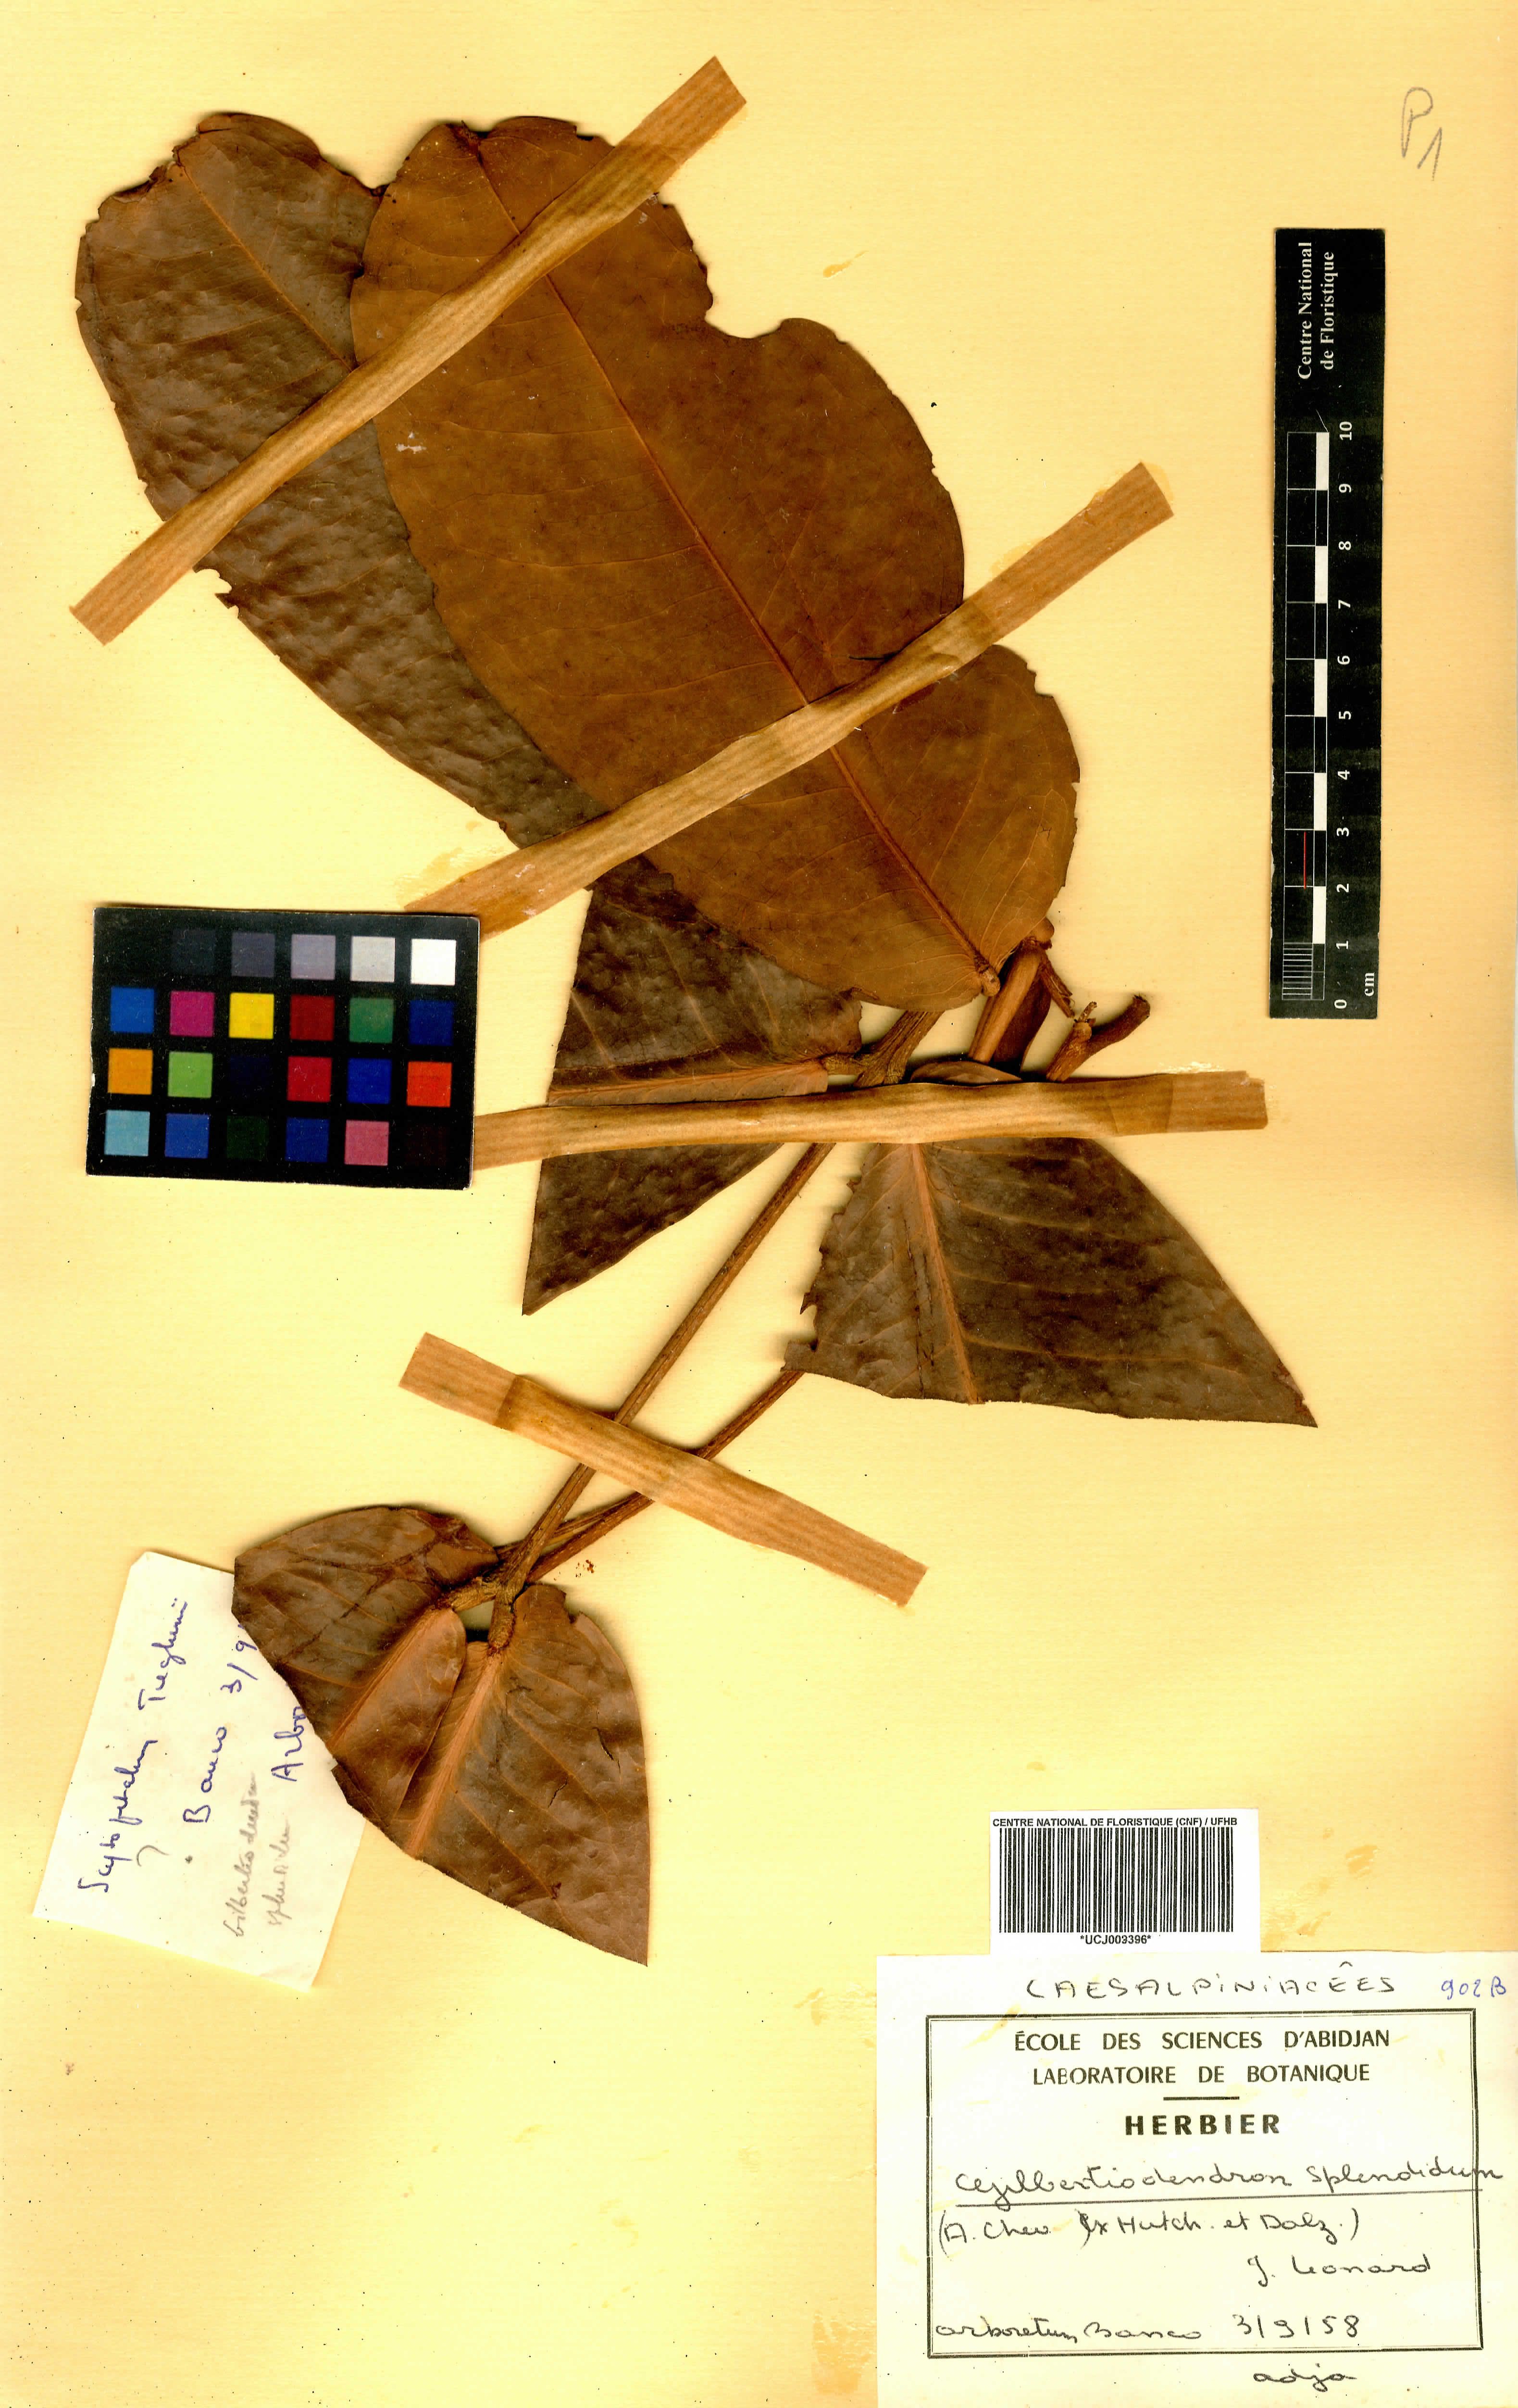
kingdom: Plantae
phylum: Tracheophyta
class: Magnoliopsida
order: Fabales
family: Fabaceae
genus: Gilbertiodendron
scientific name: Gilbertiodendron splendidum
